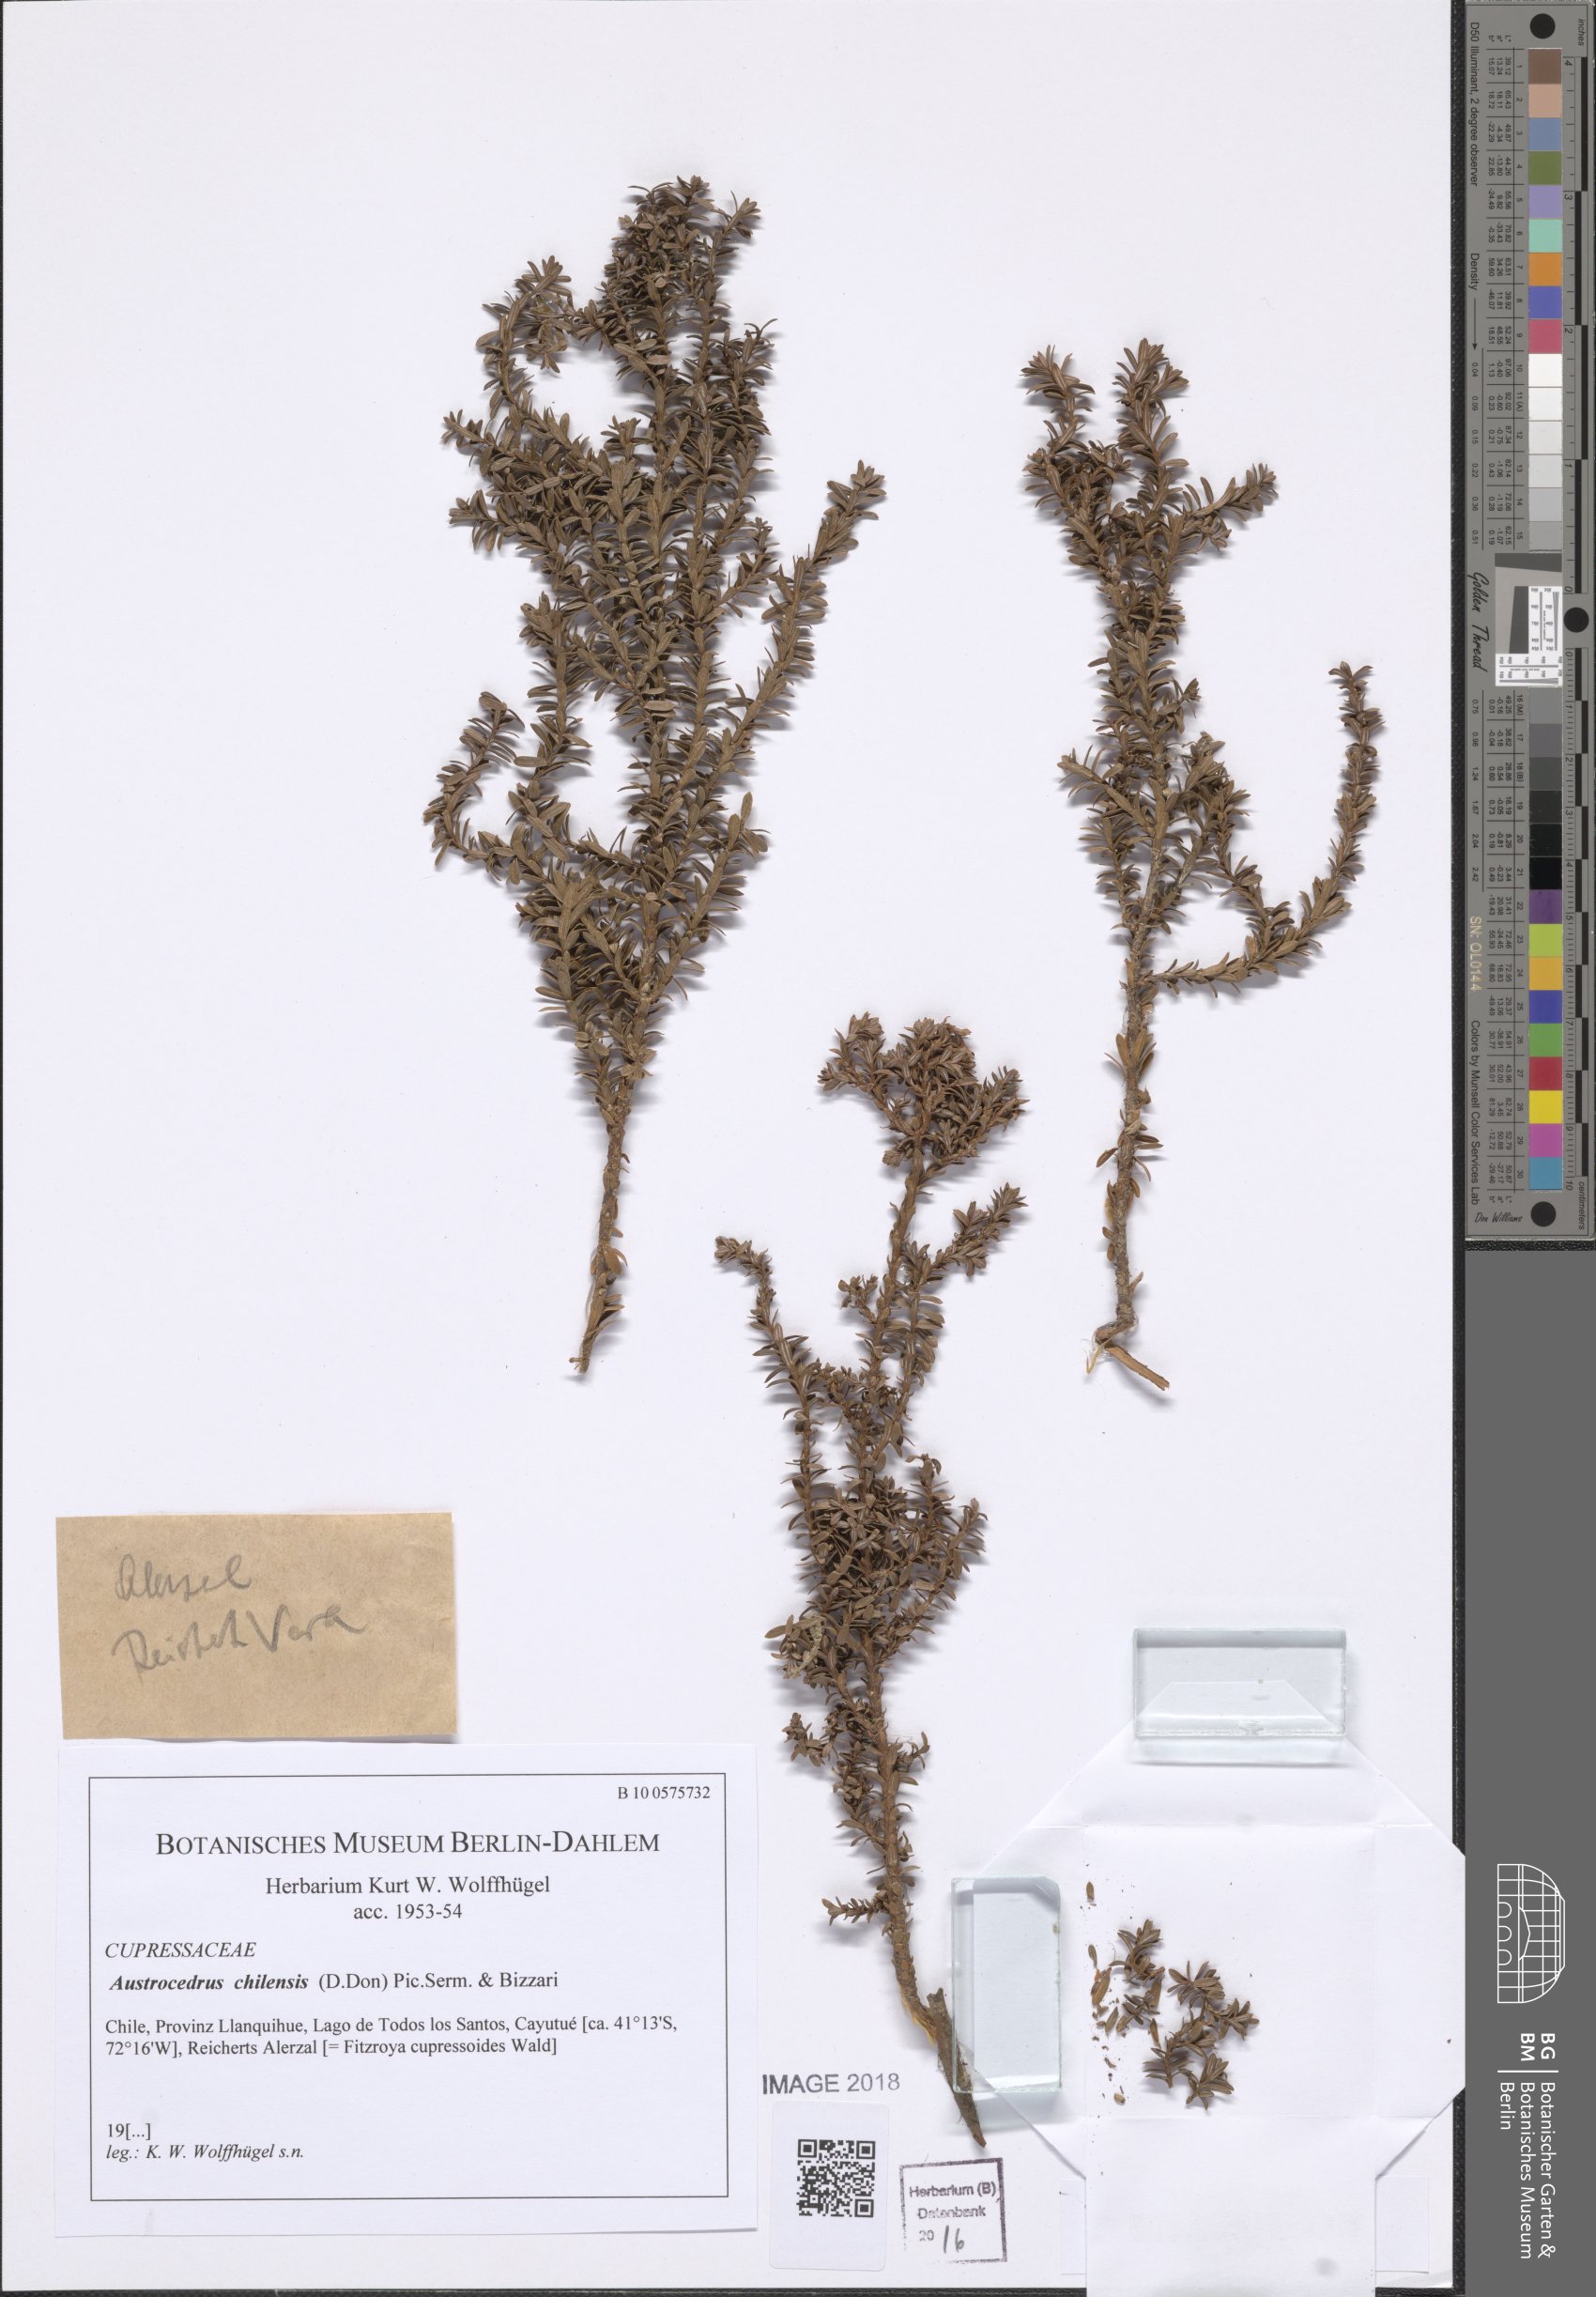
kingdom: Plantae
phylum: Tracheophyta
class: Pinopsida
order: Pinales
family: Cupressaceae
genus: Austrocedrus
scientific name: Austrocedrus chilensis
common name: Chilean incense-cedar
